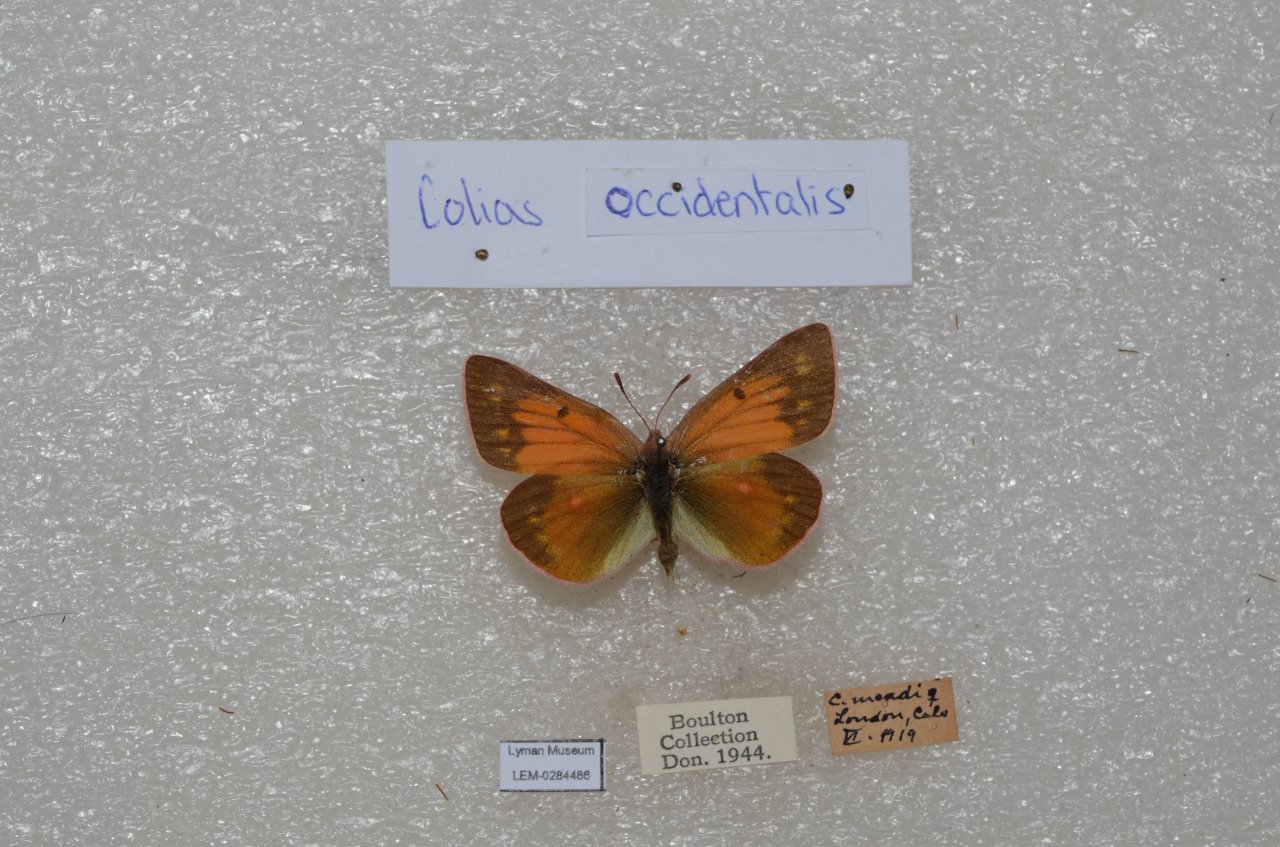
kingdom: Animalia
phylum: Arthropoda
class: Insecta
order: Lepidoptera
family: Pieridae
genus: Pontia
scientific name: Pontia occidentalis
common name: Western White
